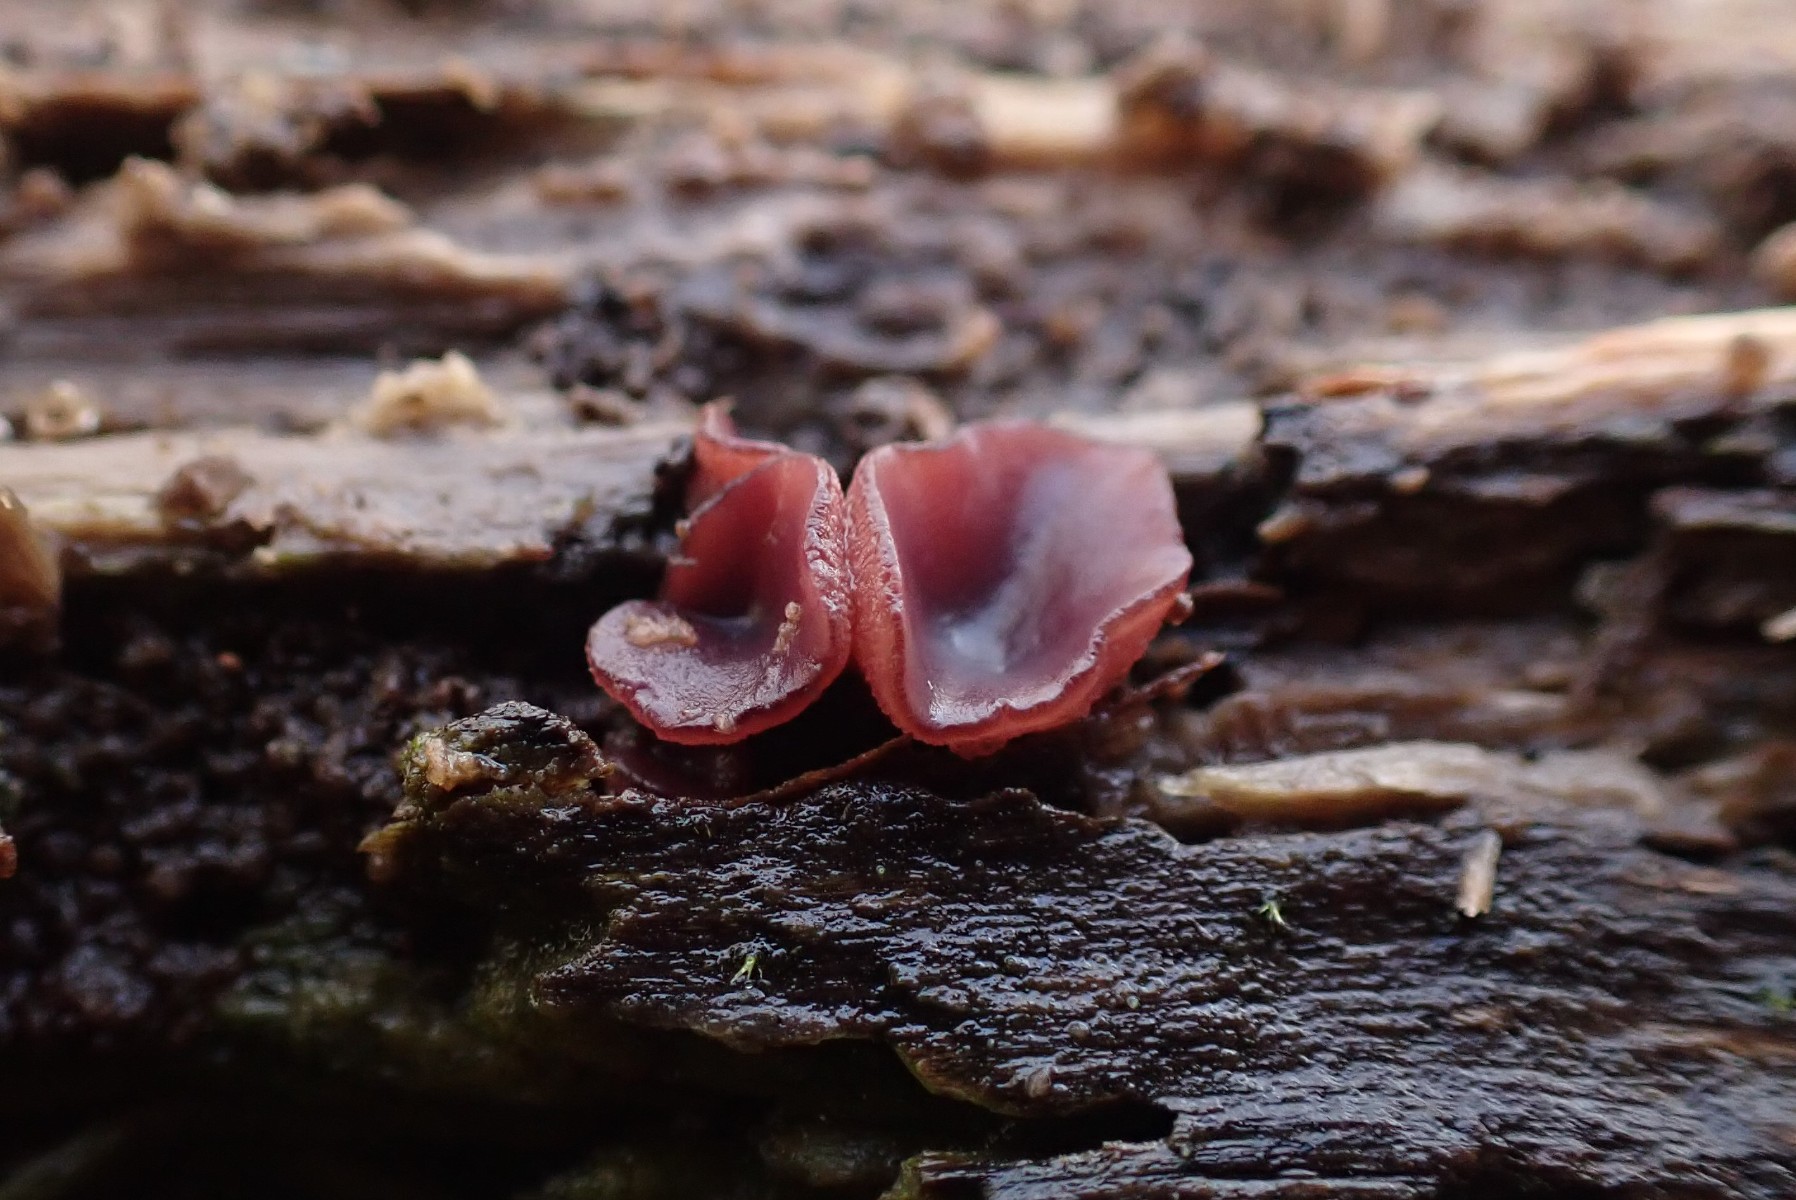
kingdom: Fungi
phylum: Ascomycota
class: Leotiomycetes
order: Helotiales
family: Gelatinodiscaceae
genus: Ascocoryne
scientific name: Ascocoryne cylichnium
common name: stor sejskive
